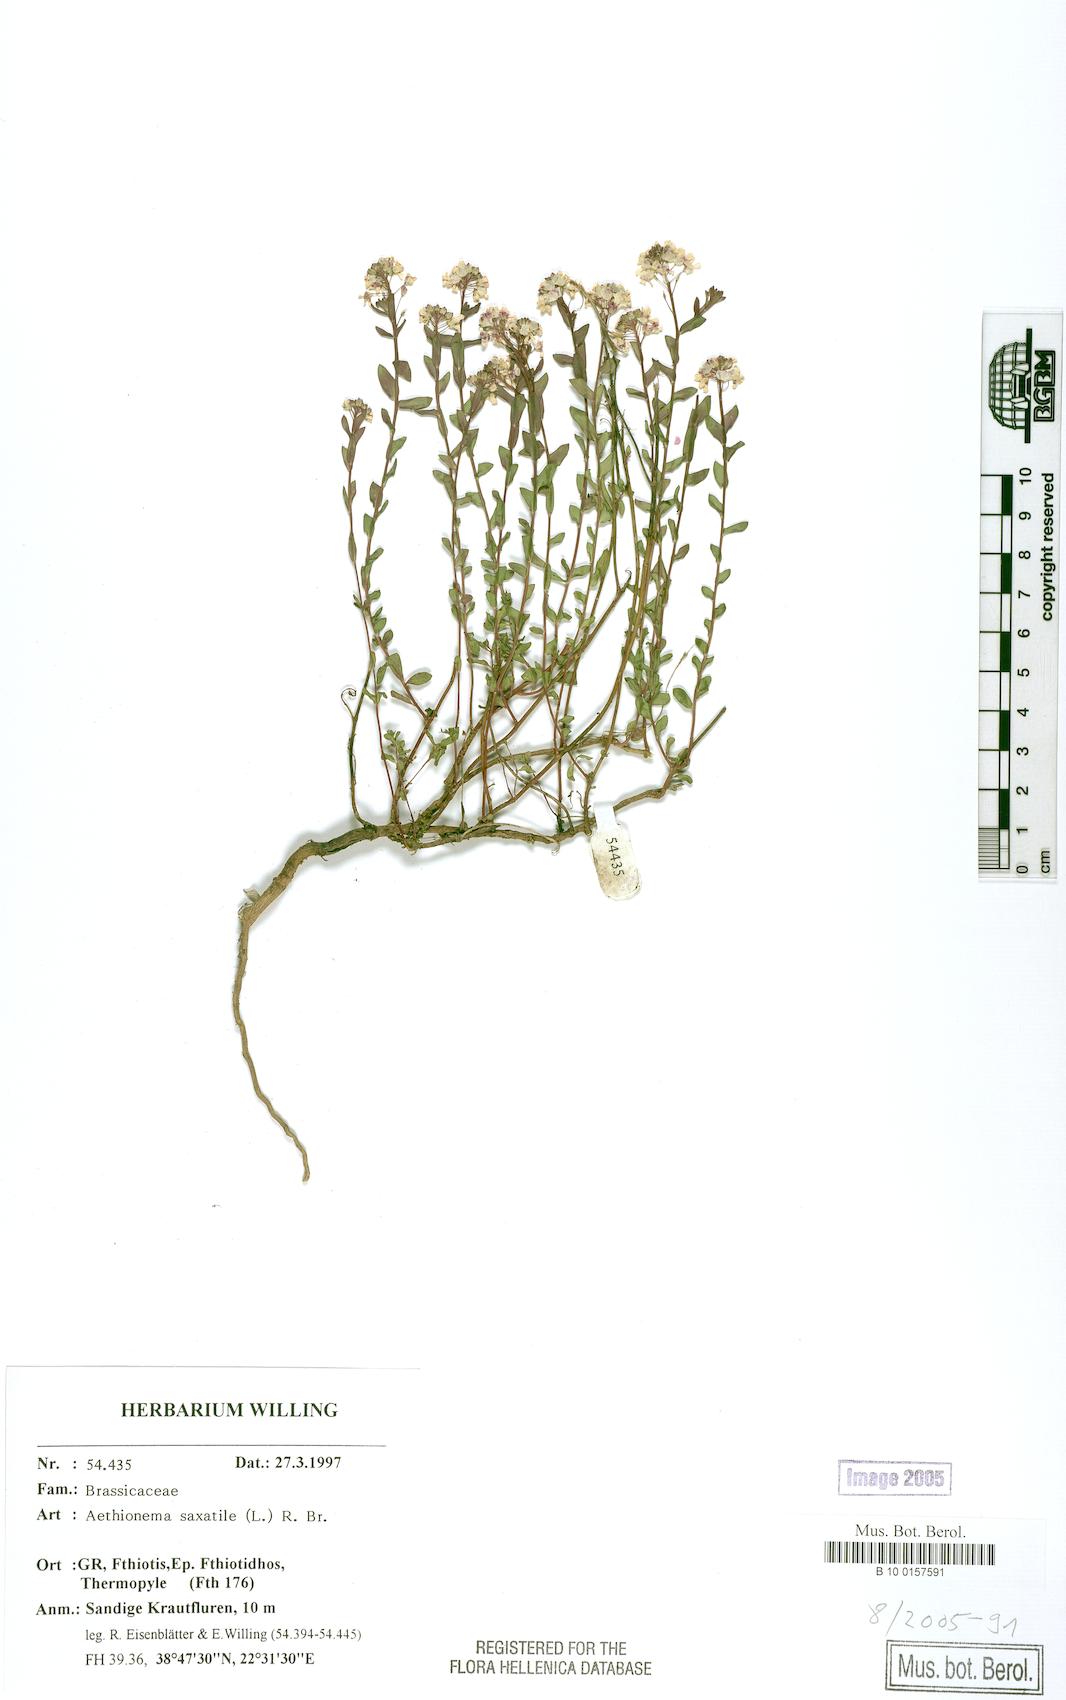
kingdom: Plantae
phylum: Tracheophyta
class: Magnoliopsida
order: Brassicales
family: Brassicaceae
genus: Aethionema
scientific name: Aethionema saxatile
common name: Burnt candytuft
